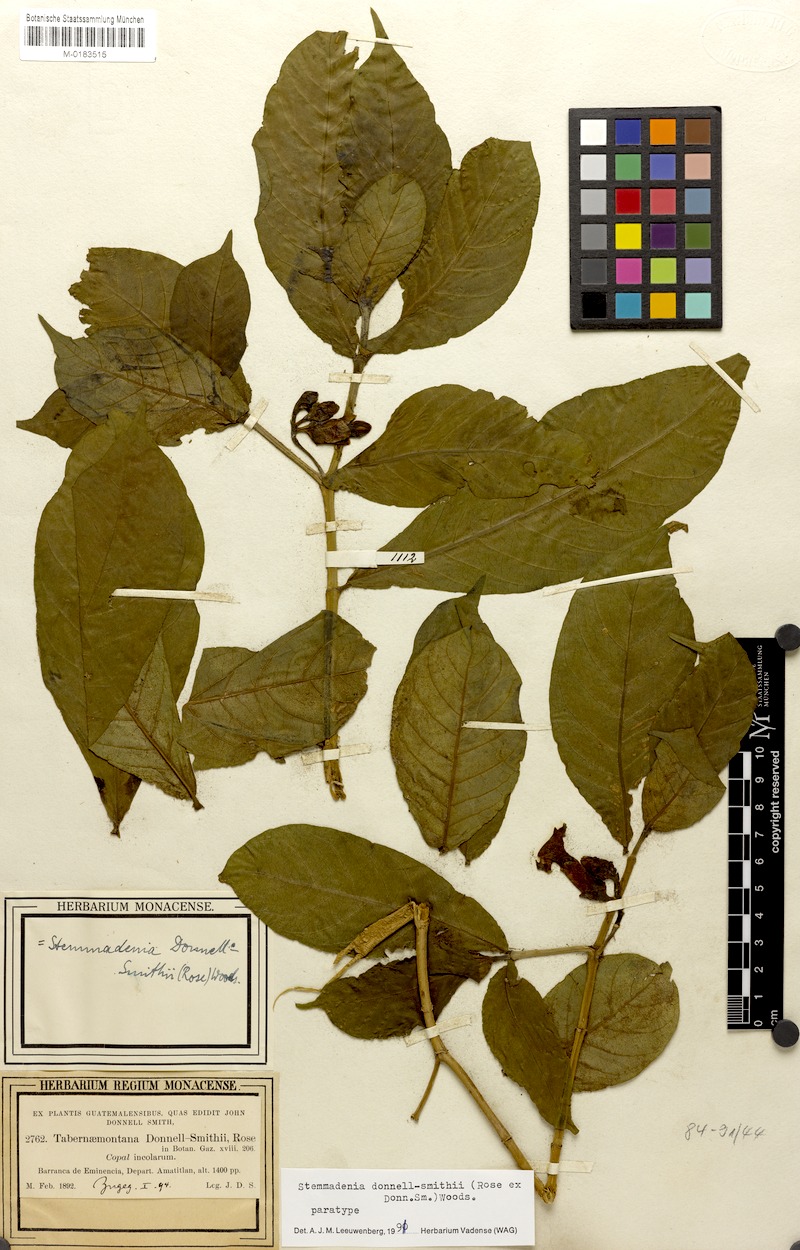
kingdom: Plantae
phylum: Tracheophyta
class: Magnoliopsida
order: Gentianales
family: Apocynaceae
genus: Tabernaemontana
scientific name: Tabernaemontana donnell-smithii
